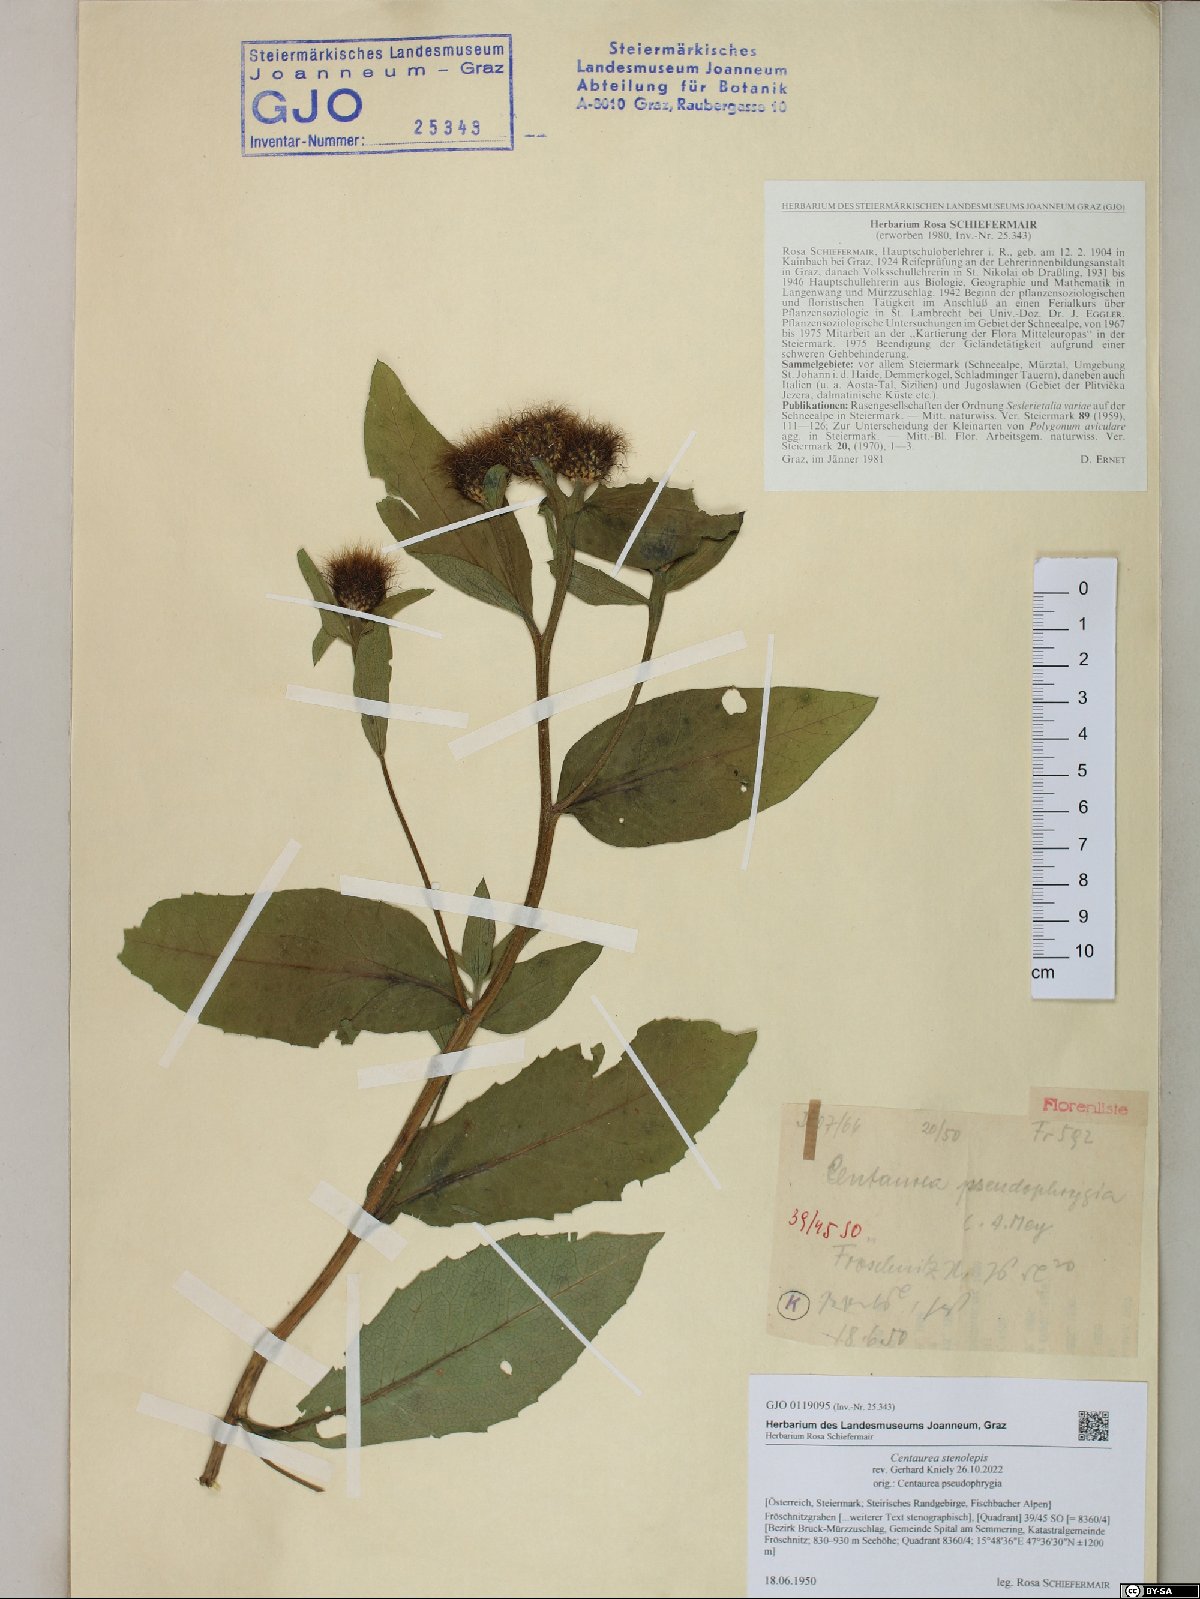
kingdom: Plantae
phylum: Tracheophyta
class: Magnoliopsida
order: Asterales
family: Asteraceae
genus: Centaurea
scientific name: Centaurea stenolepis
